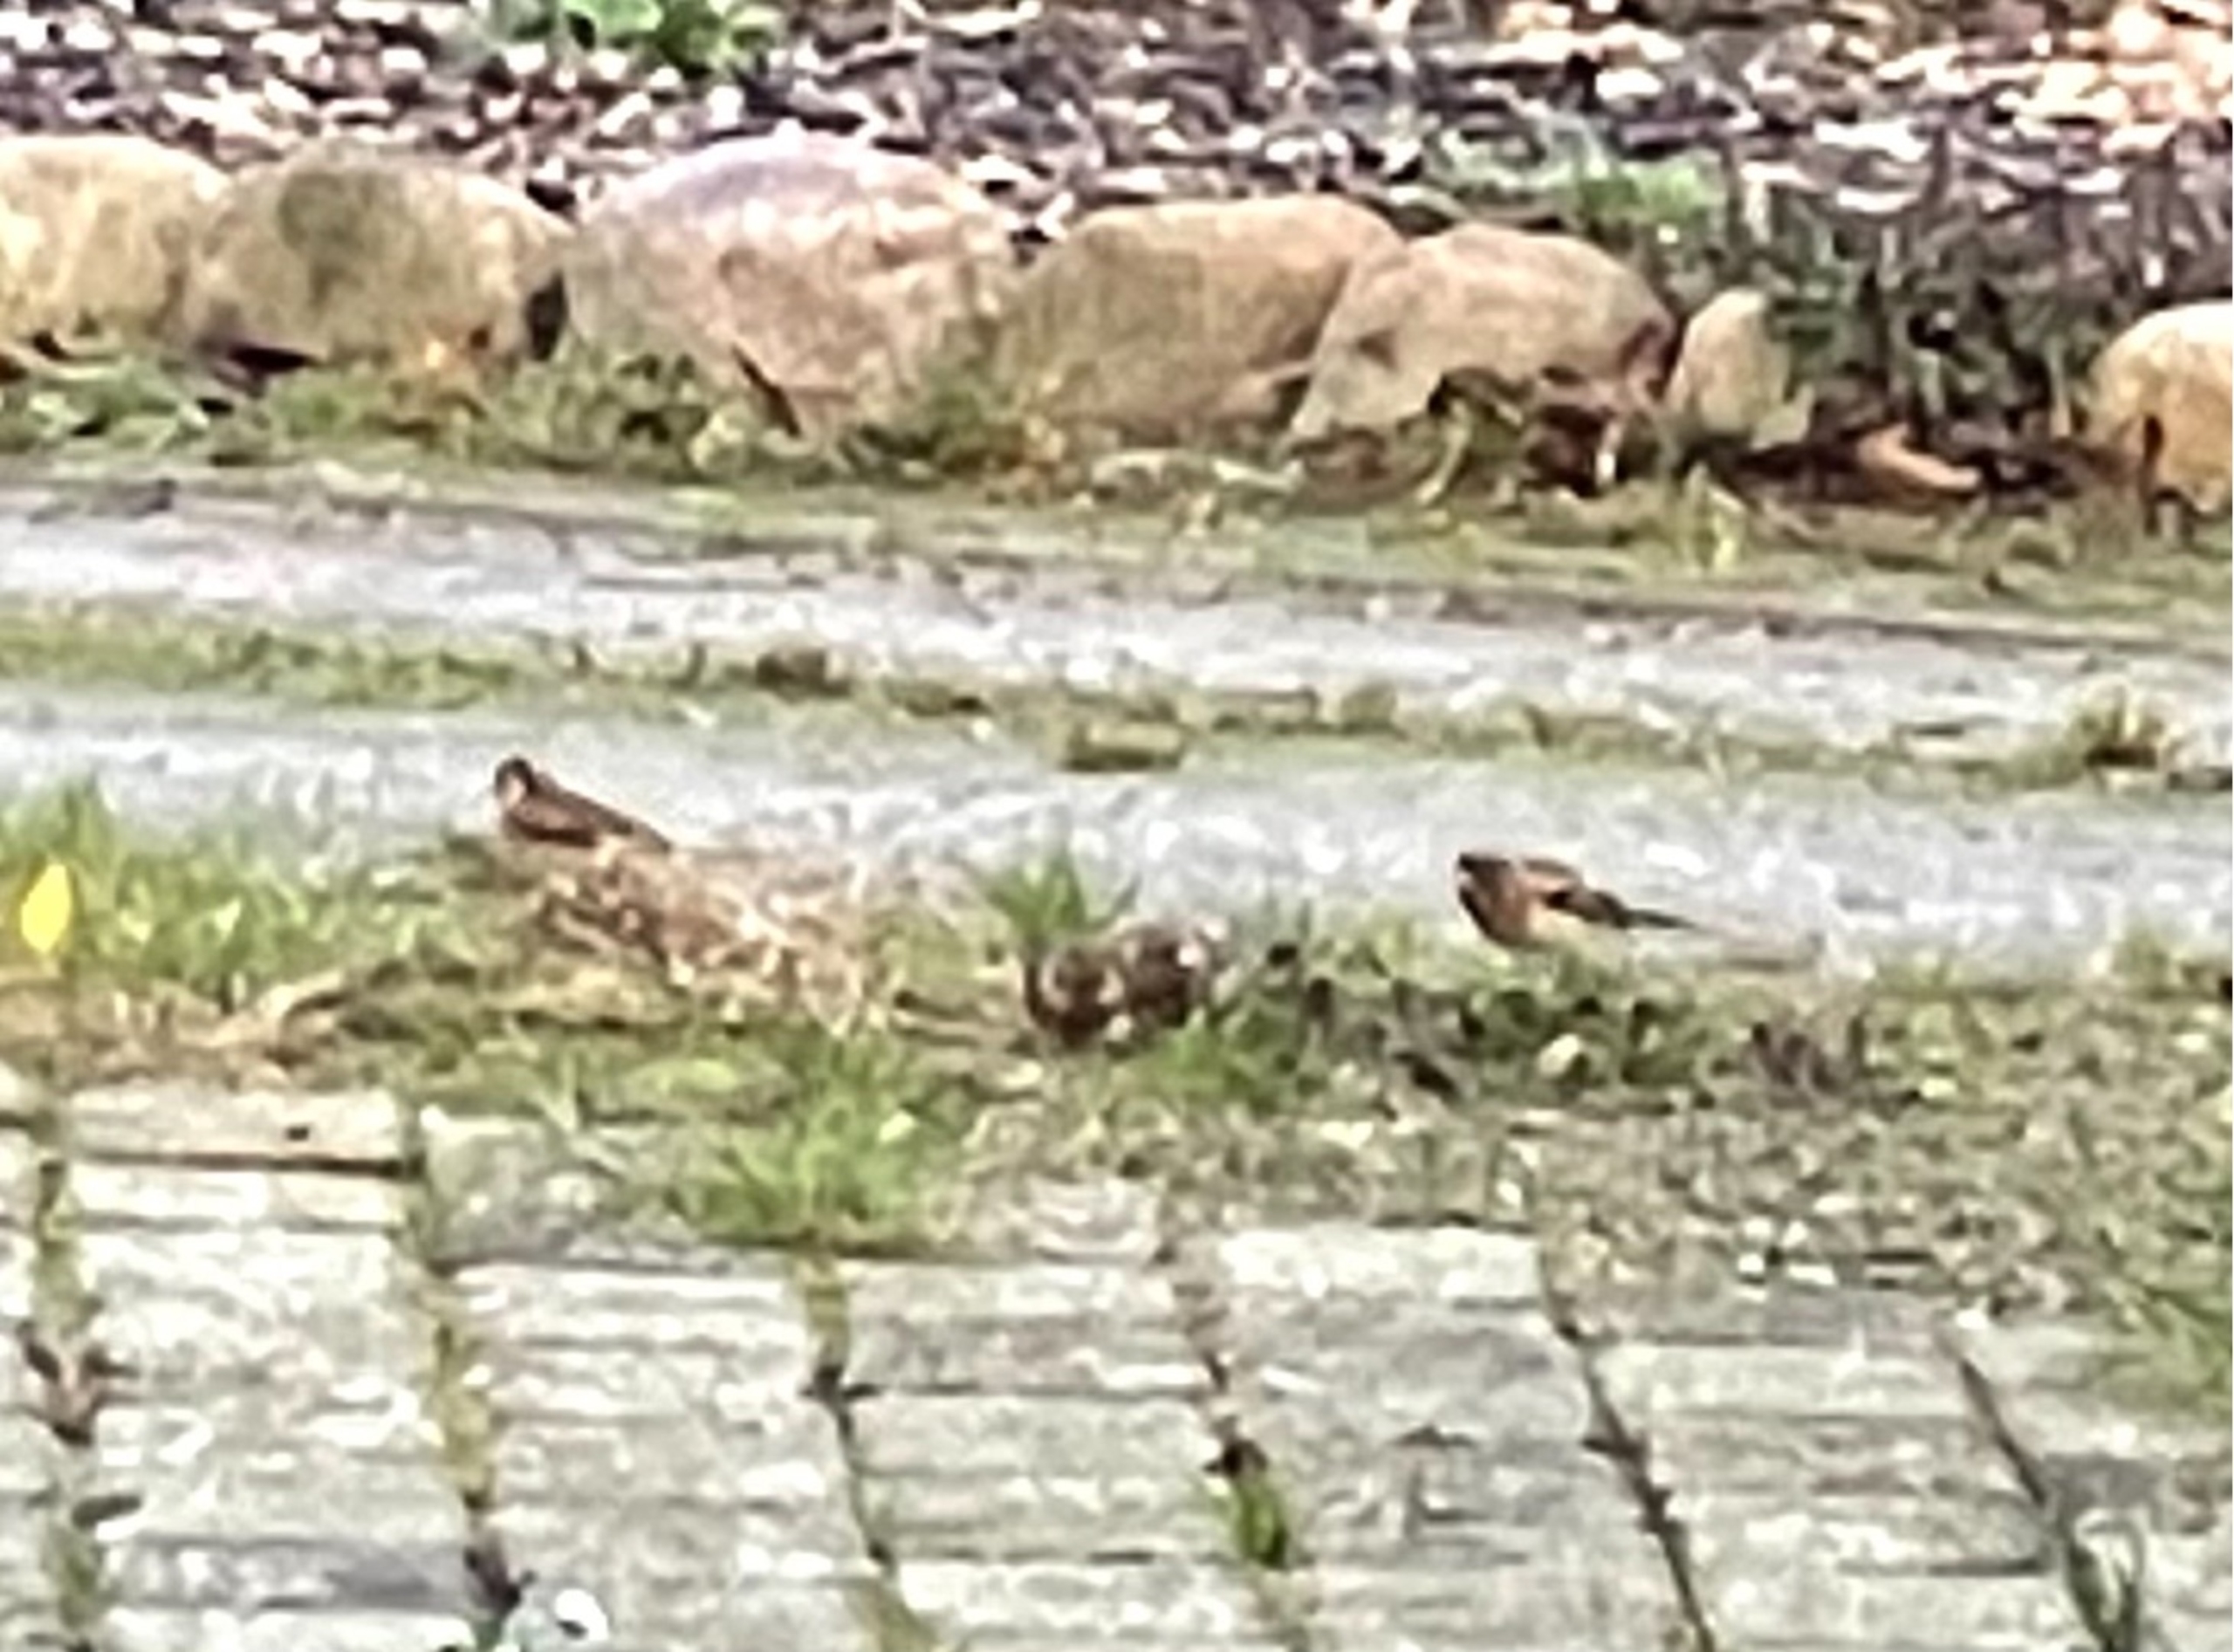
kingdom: Animalia
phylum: Chordata
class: Aves
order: Passeriformes
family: Fringillidae
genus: Fringilla
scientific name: Fringilla montifringilla
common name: Kvækerfinke
